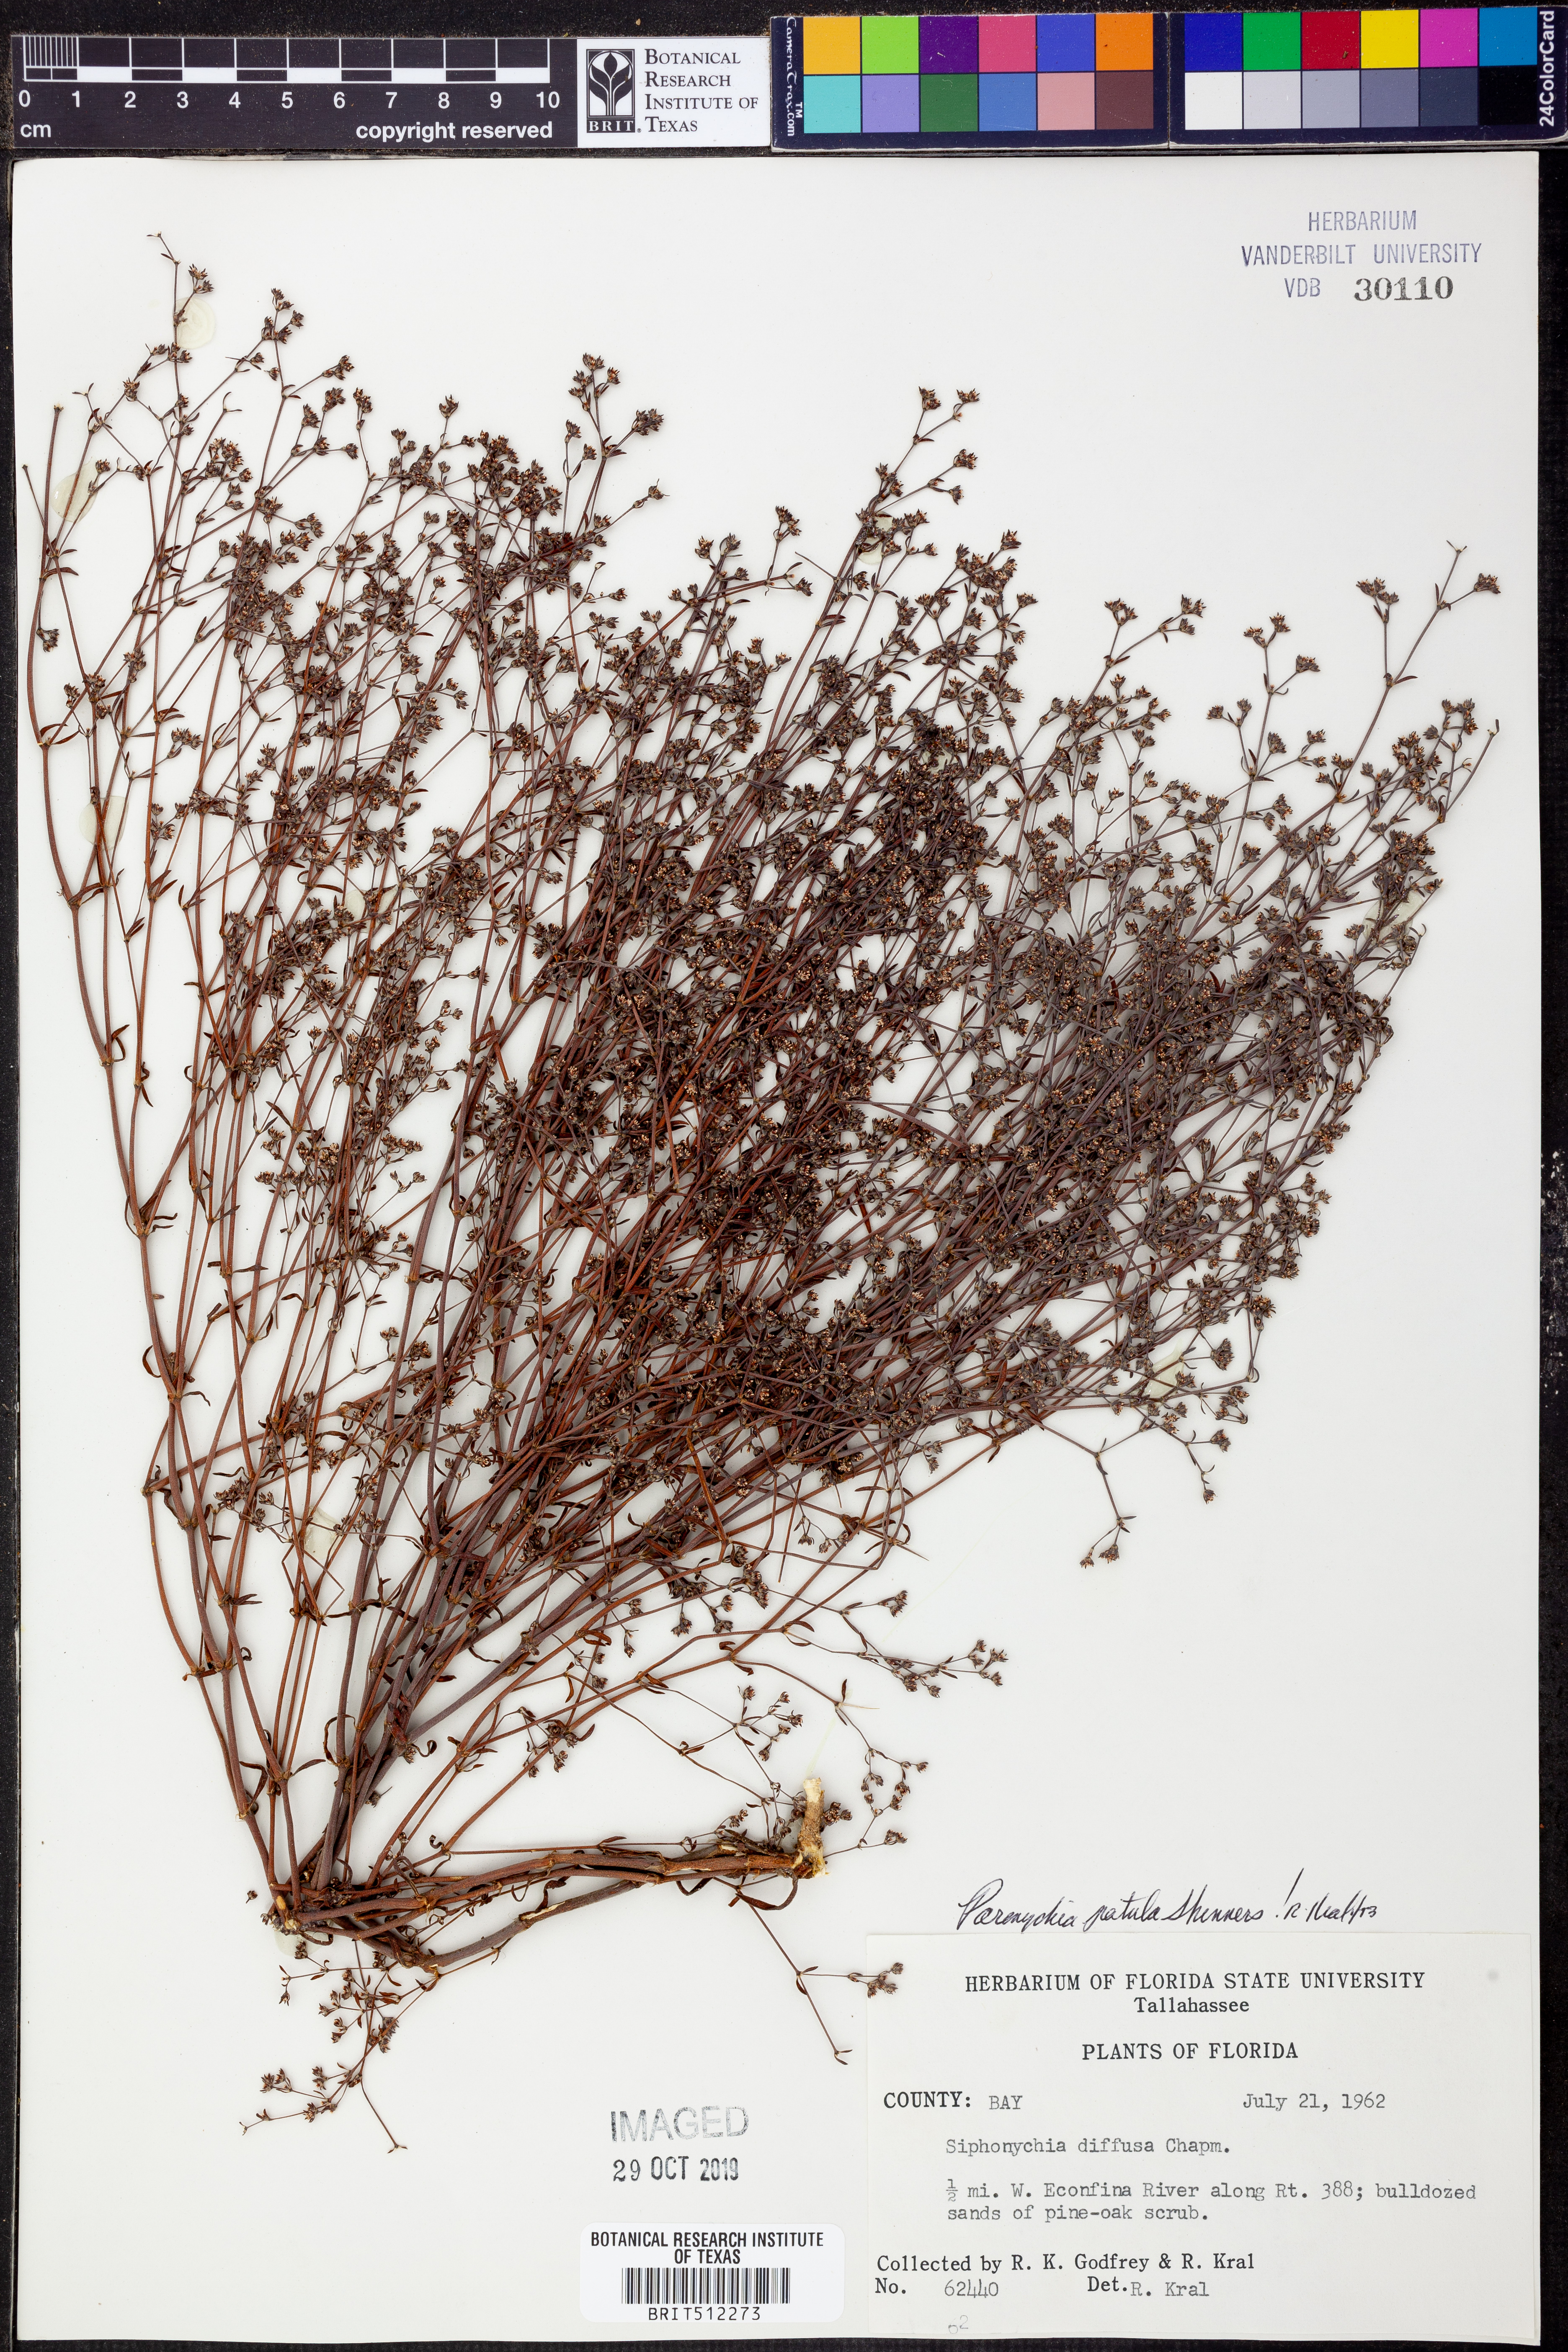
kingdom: Plantae
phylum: Tracheophyta
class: Magnoliopsida
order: Caryophyllales
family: Caryophyllaceae
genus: Paronychia
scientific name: Paronychia patula
